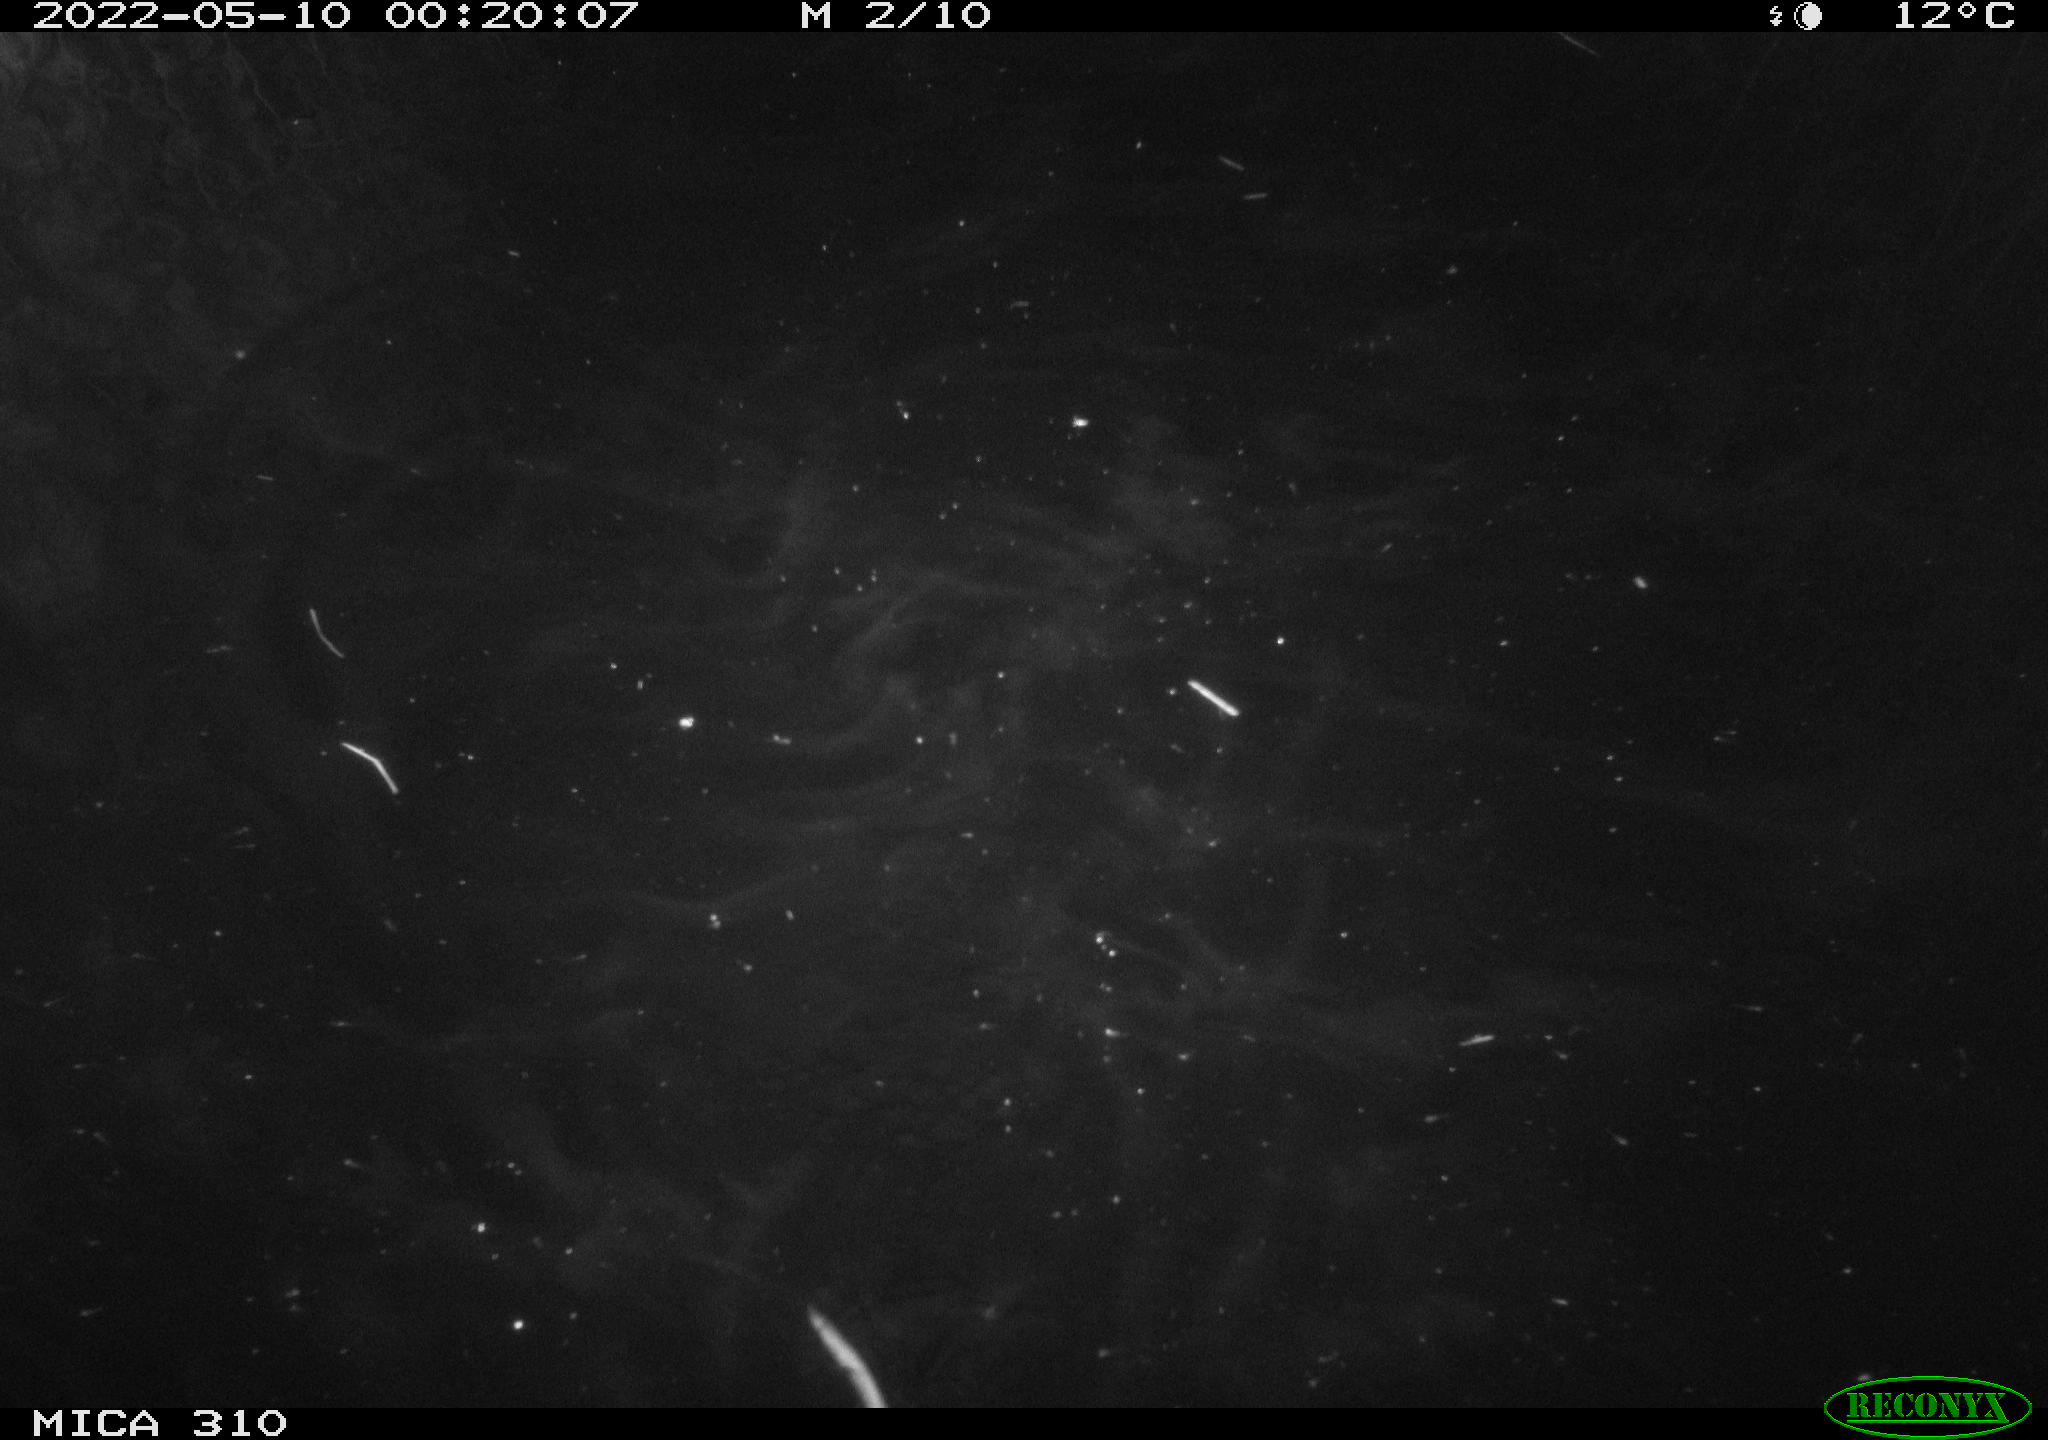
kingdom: Animalia
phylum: Chordata
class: Mammalia
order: Rodentia
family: Muridae
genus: Rattus
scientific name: Rattus norvegicus
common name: Brown rat
